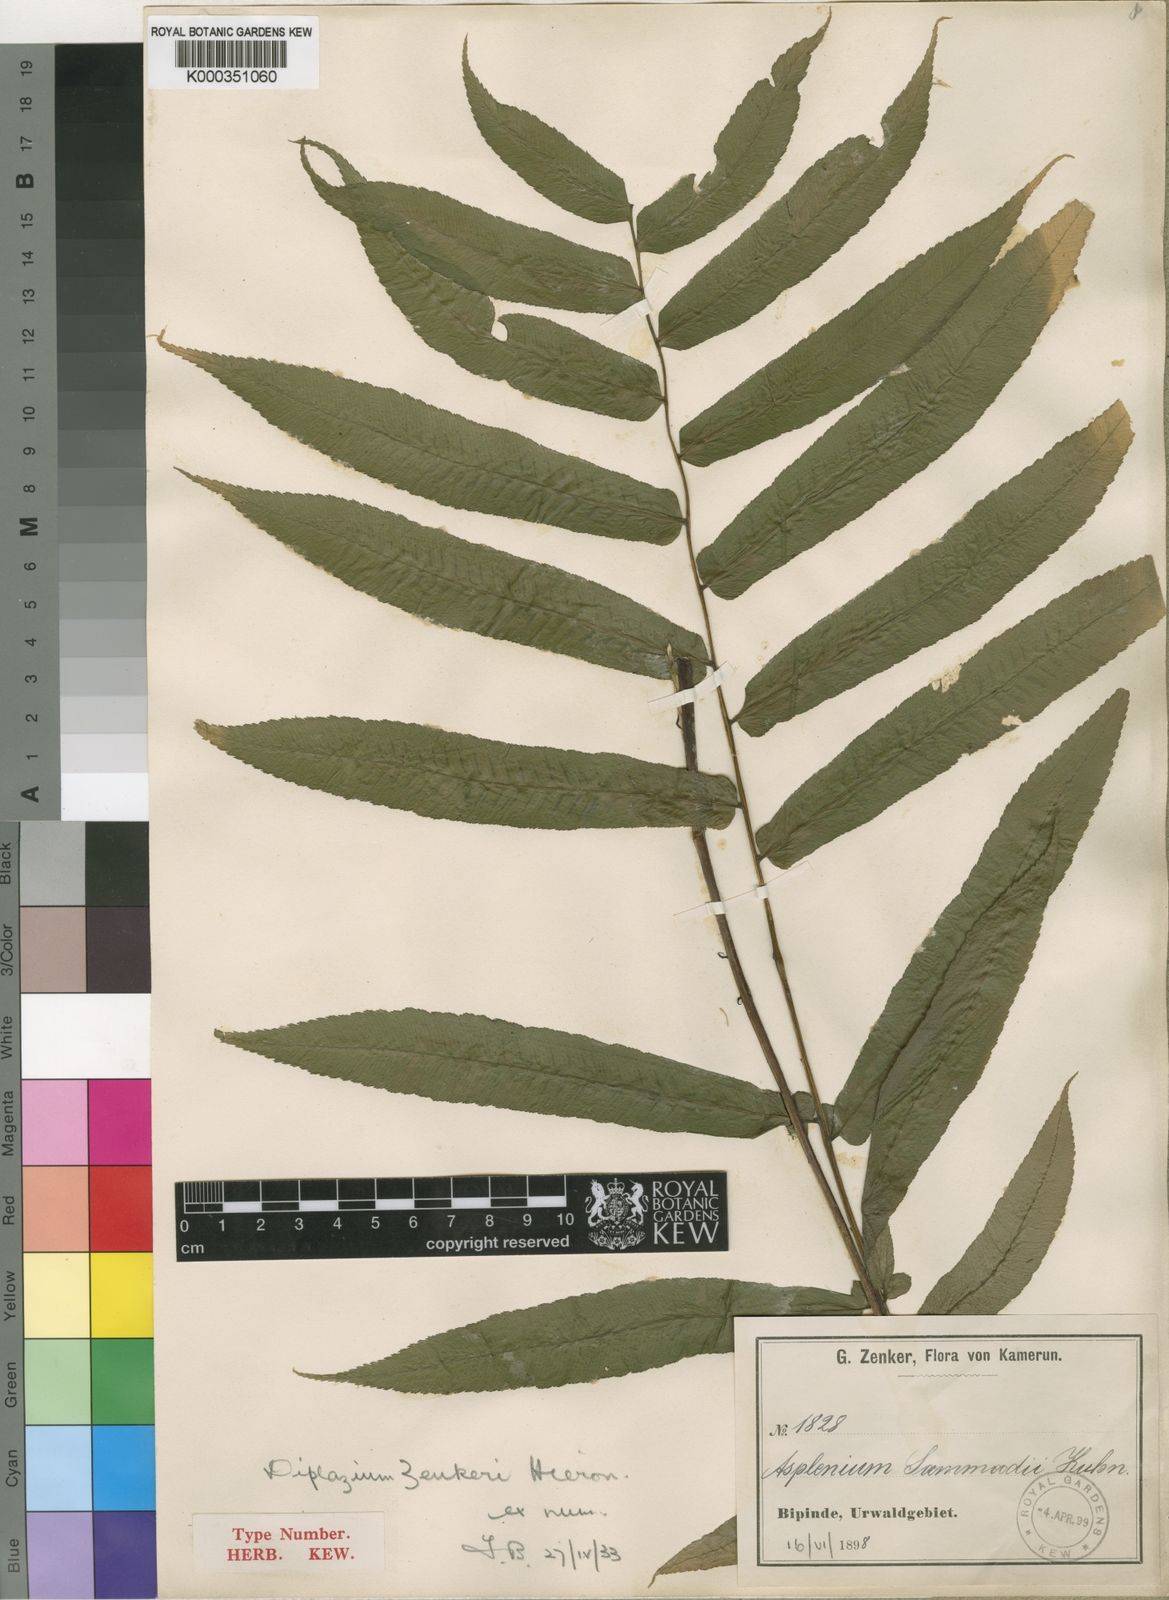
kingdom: Plantae
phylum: Tracheophyta
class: Polypodiopsida
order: Polypodiales
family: Athyriaceae
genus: Diplazium
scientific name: Diplazium sammatii
